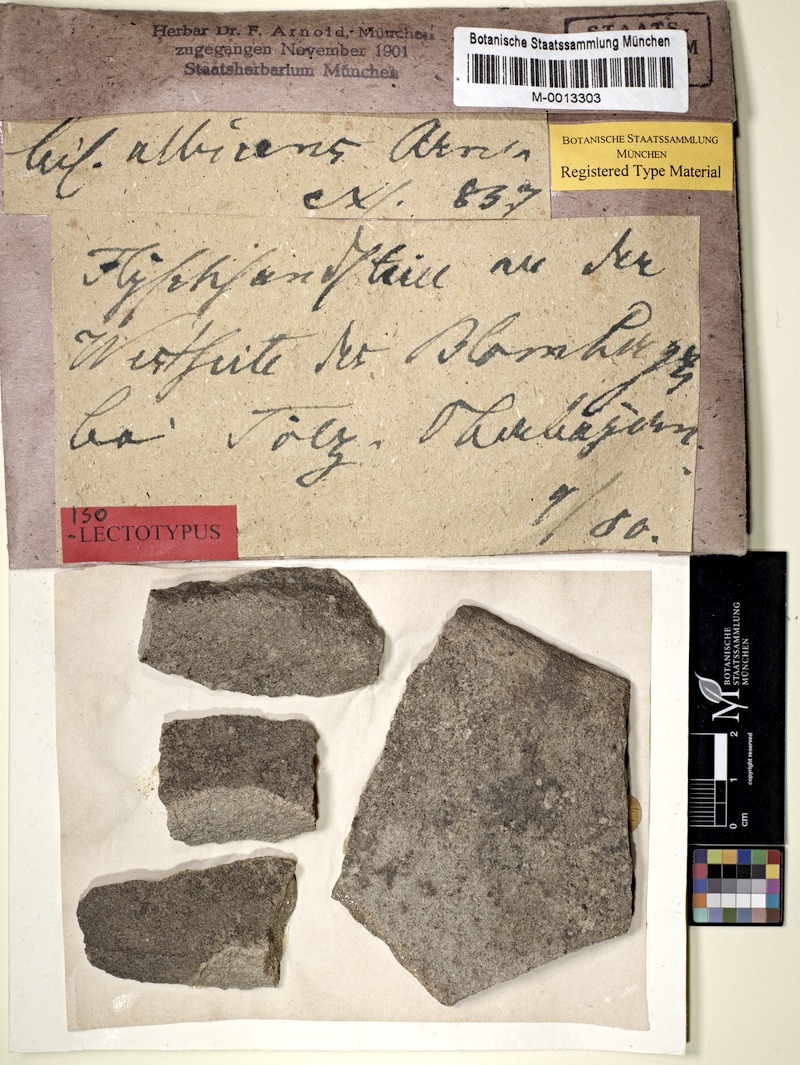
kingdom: Fungi
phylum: Ascomycota
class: Lecanoromycetes
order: Lecanorales
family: Byssolomataceae
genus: Micarea
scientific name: Micarea peliocarpa
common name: Shadow dot lichen
